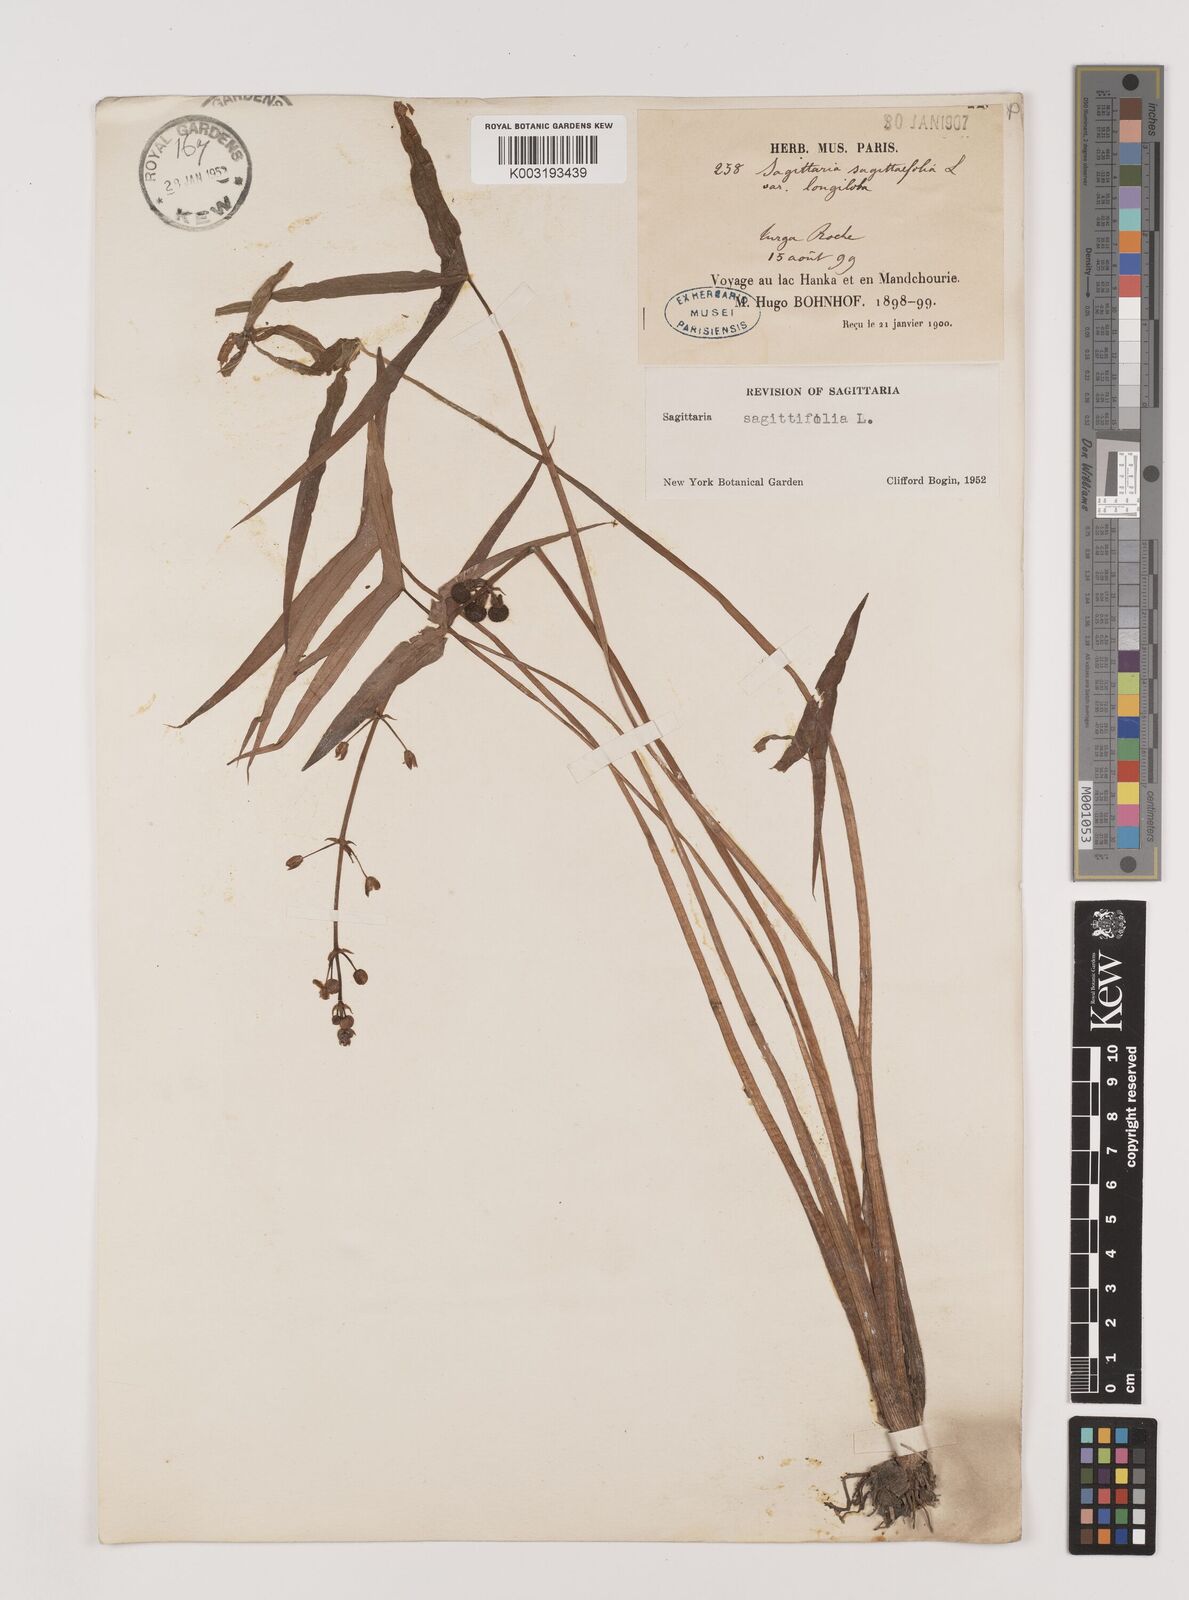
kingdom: Plantae
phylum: Tracheophyta
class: Liliopsida
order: Alismatales
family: Alismataceae
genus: Sagittaria
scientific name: Sagittaria trifolia
